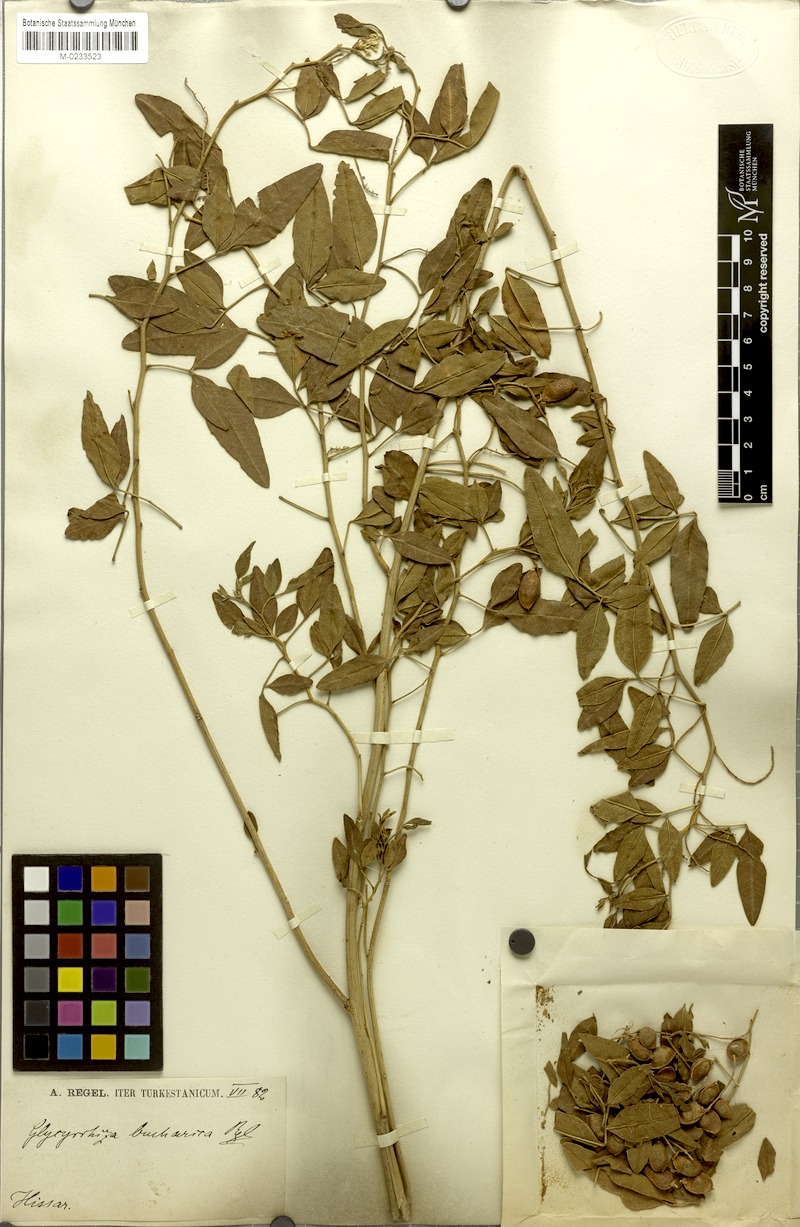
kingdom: Plantae
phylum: Tracheophyta
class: Magnoliopsida
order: Fabales
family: Fabaceae
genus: Glycyrrhiza
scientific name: Glycyrrhiza bucharica
